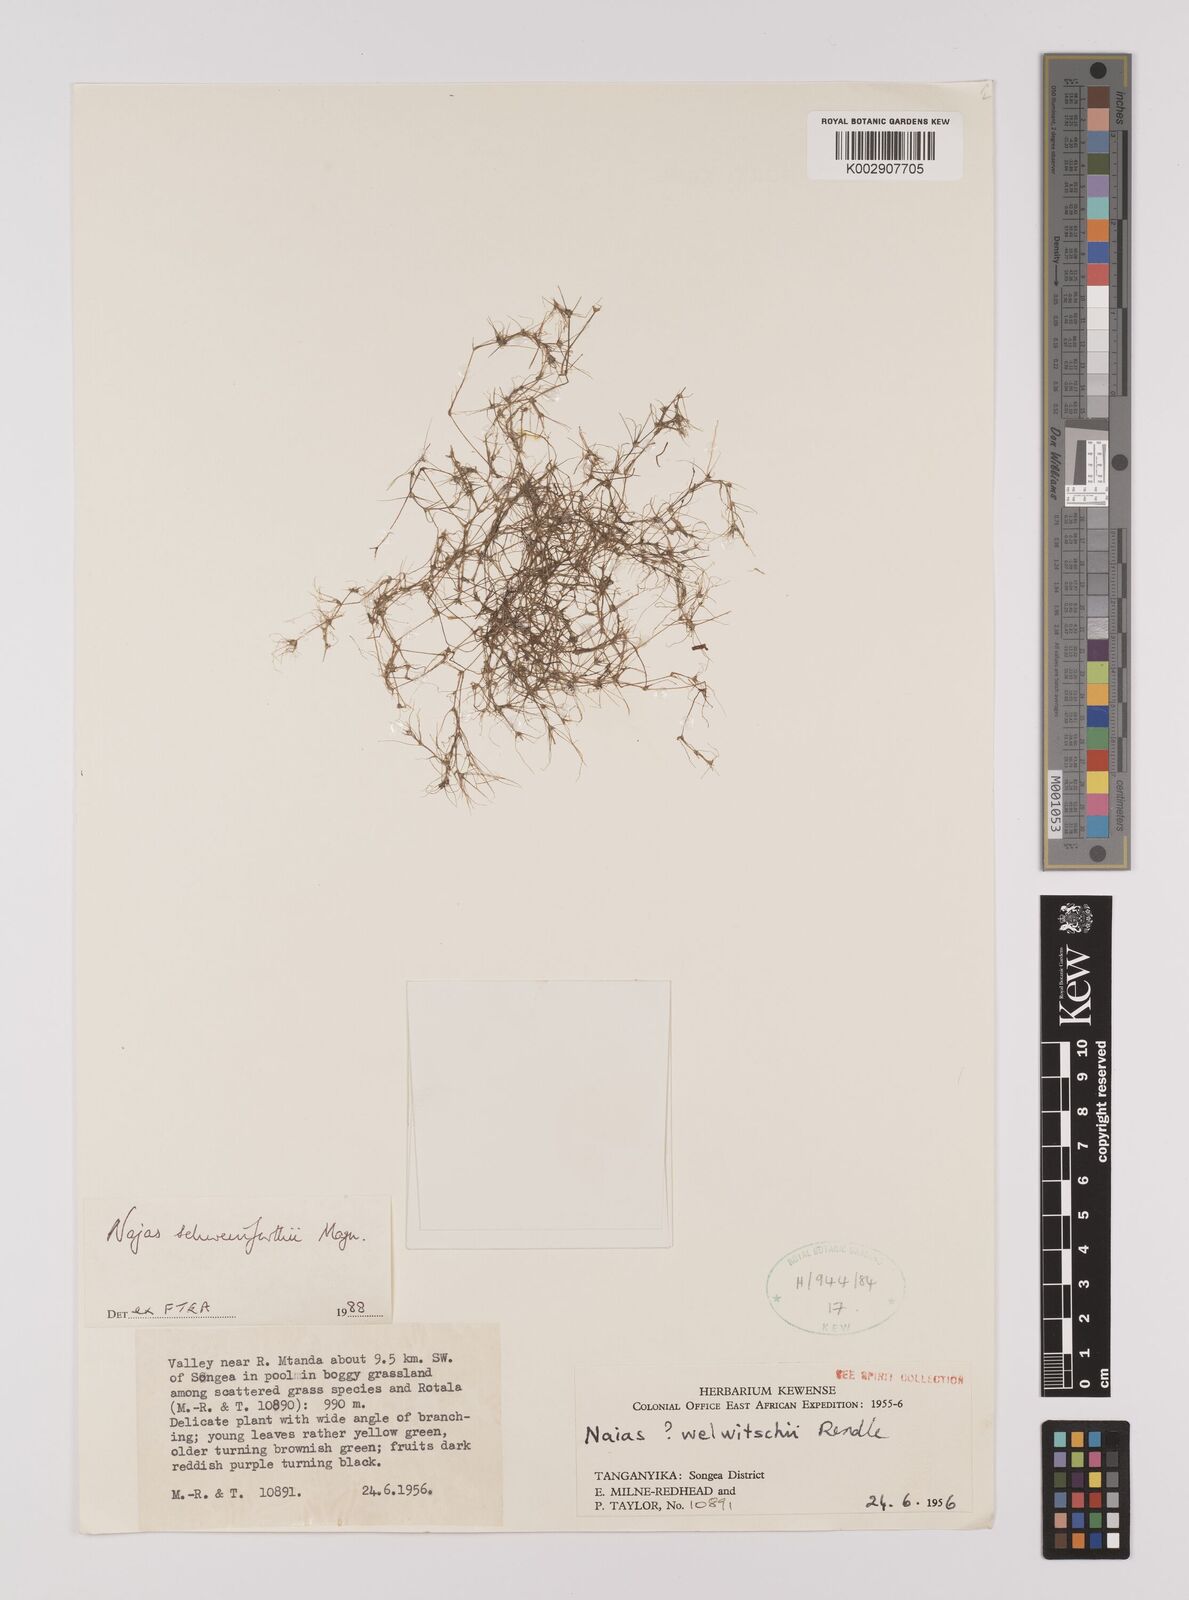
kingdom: Plantae
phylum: Tracheophyta
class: Liliopsida
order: Alismatales
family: Hydrocharitaceae
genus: Najas
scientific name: Najas schweinfurthii
